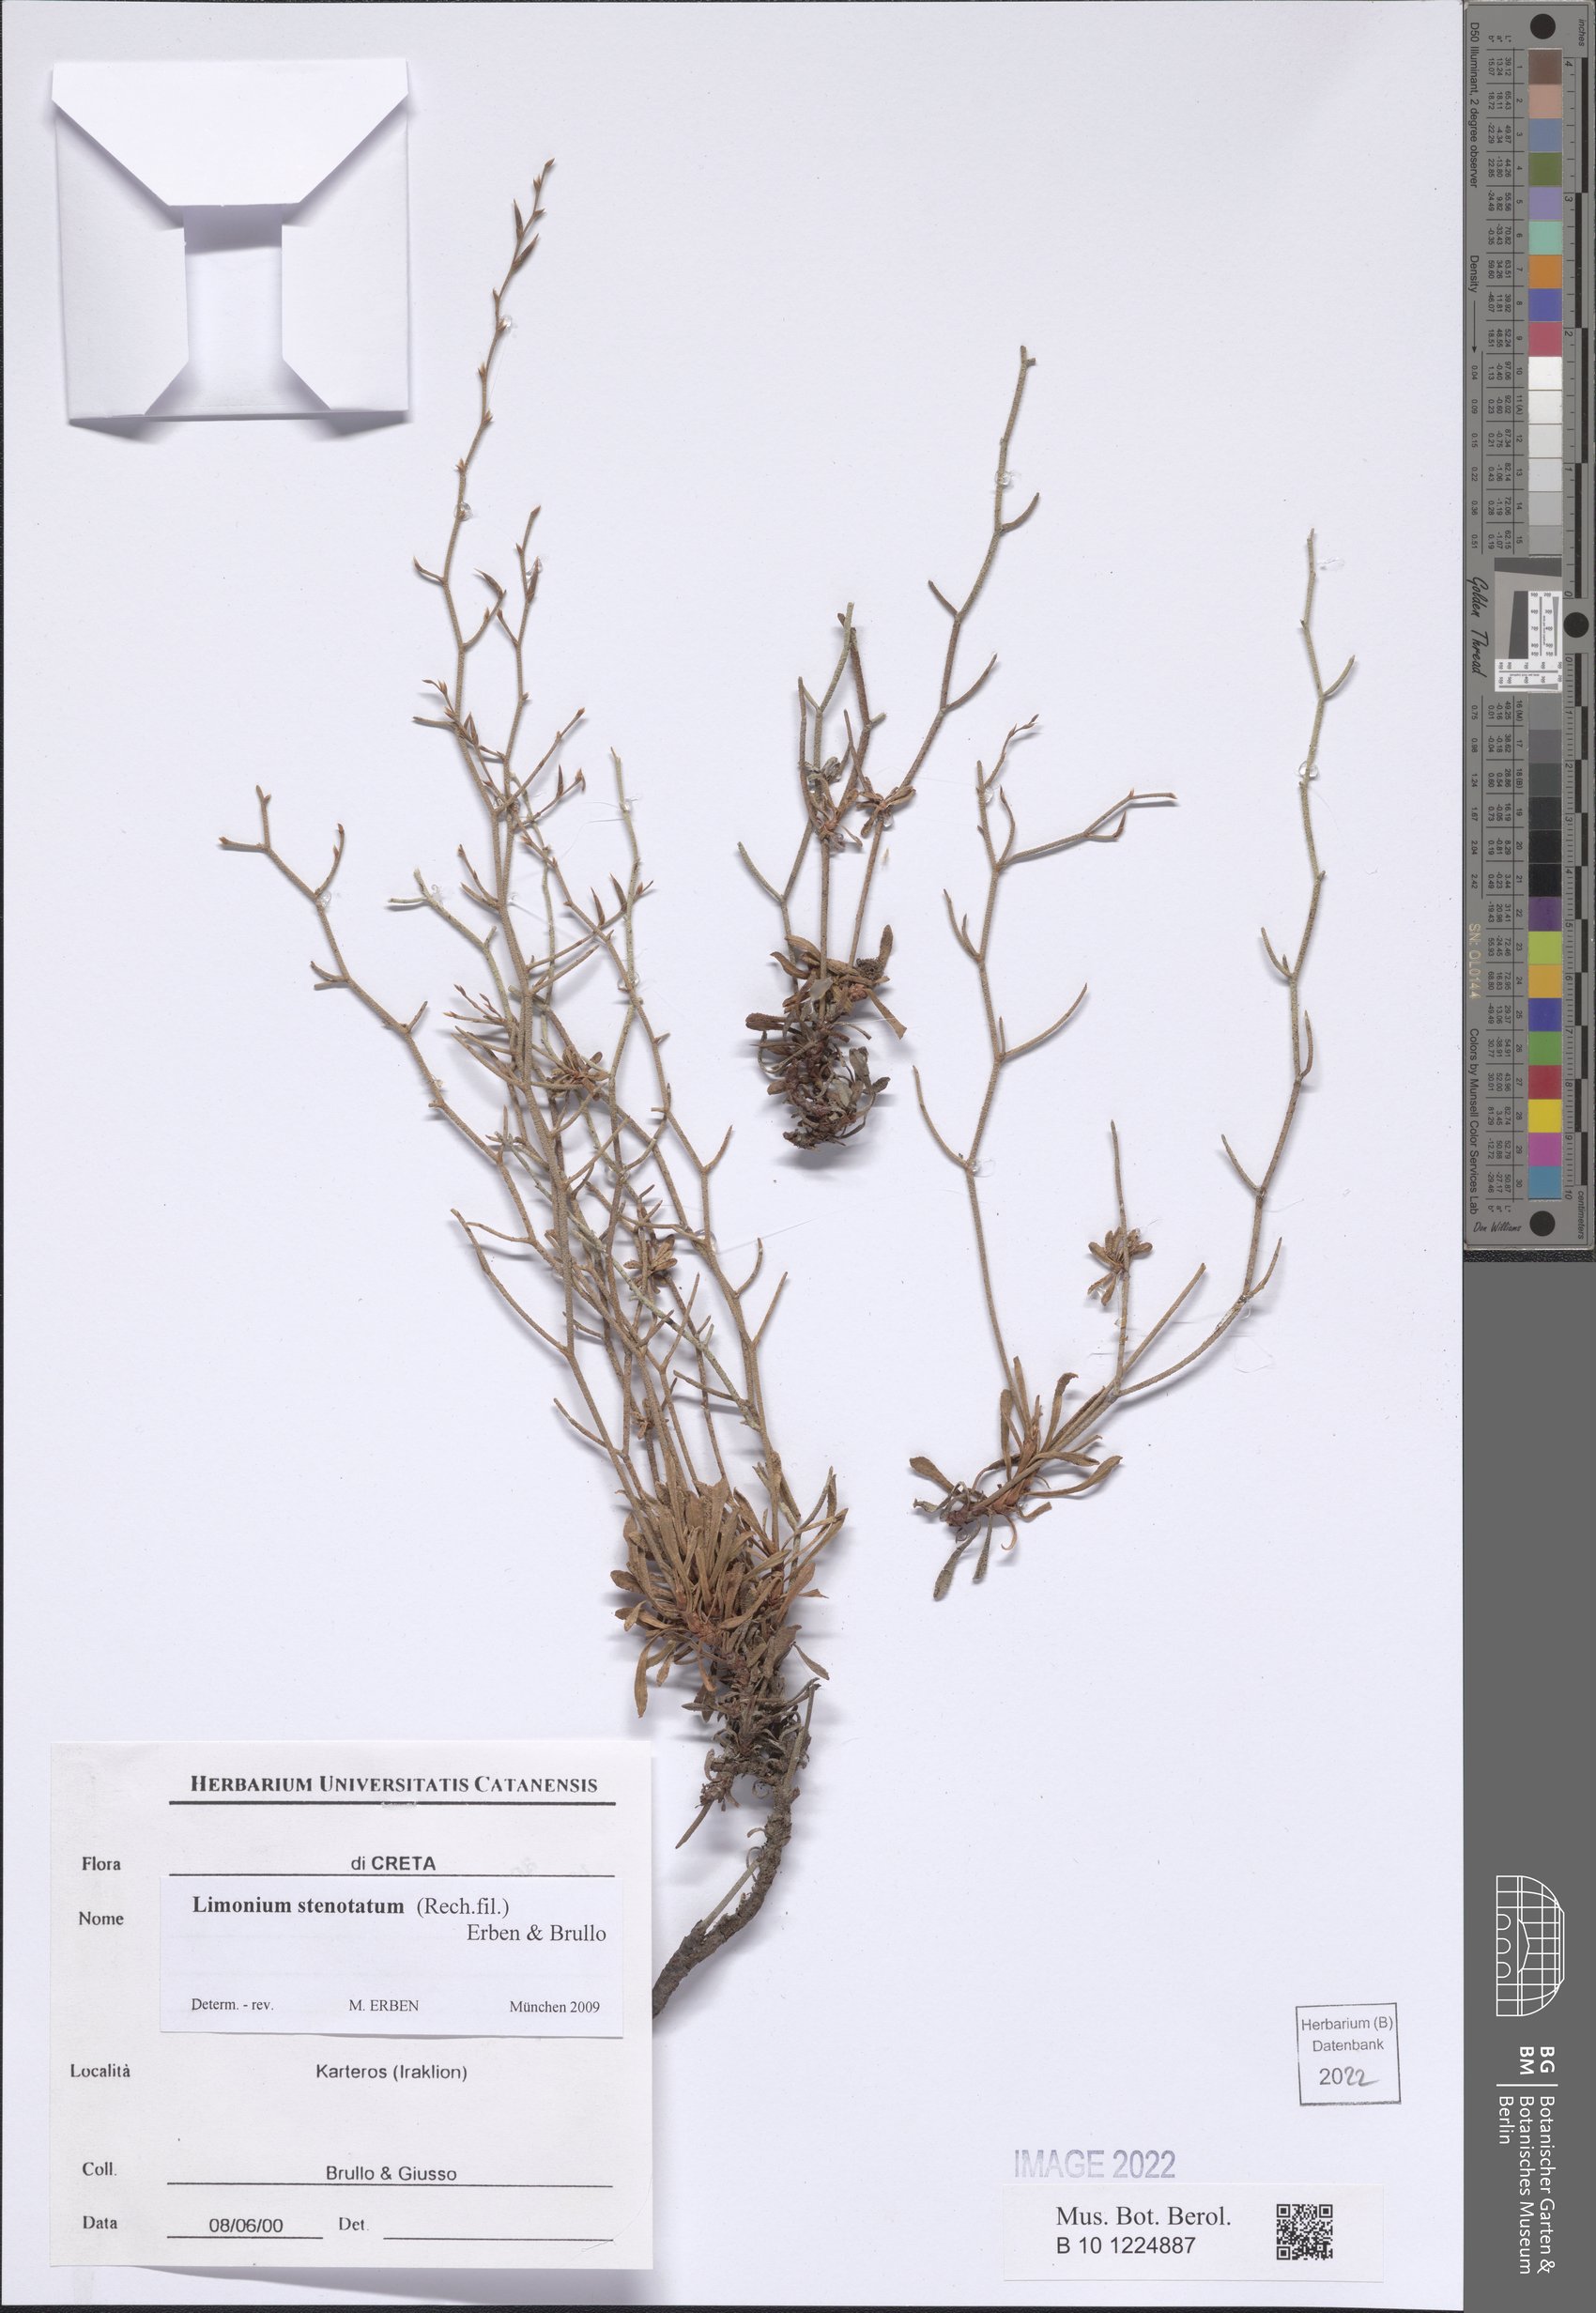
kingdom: Plantae
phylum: Tracheophyta
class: Magnoliopsida
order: Caryophyllales
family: Plumbaginaceae
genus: Limonium
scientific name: Limonium stenotatum
